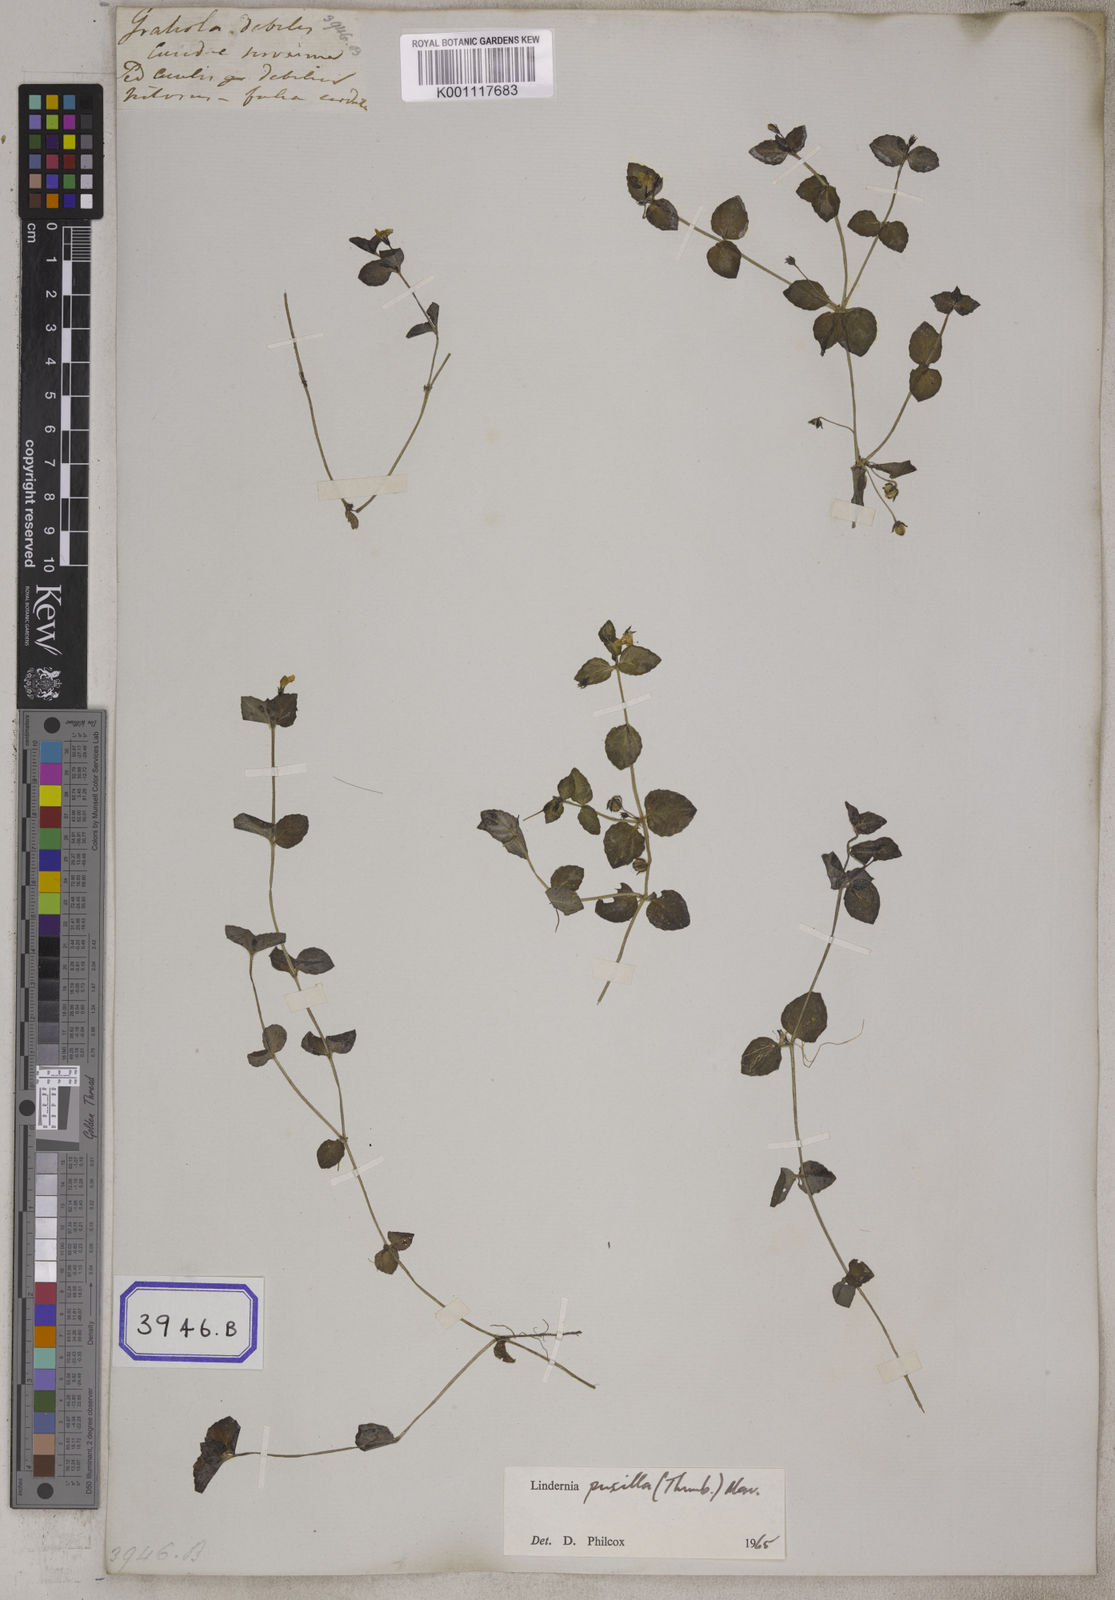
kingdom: Plantae
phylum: Tracheophyta
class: Magnoliopsida
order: Lamiales
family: Linderniaceae
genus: Yamazakia
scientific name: Yamazakia pusilla
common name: Tiny slitwort
